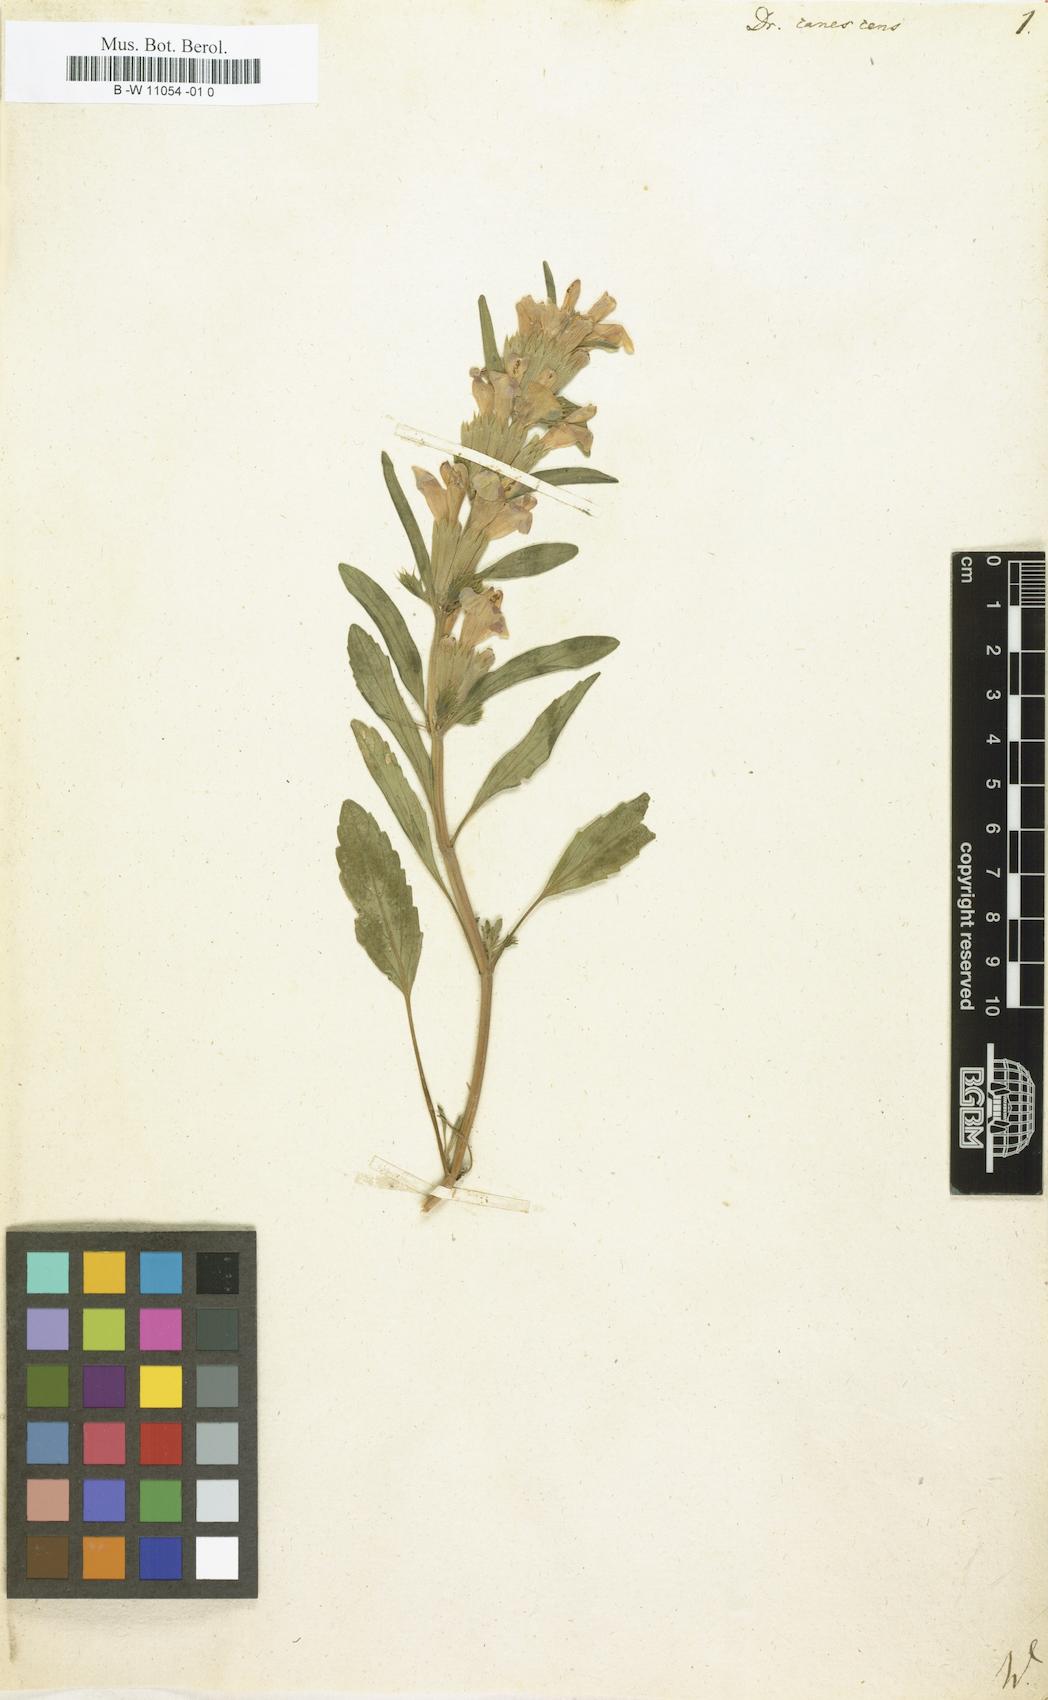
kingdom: Plantae
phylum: Tracheophyta
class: Magnoliopsida
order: Lamiales
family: Lamiaceae
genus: Lallemantia
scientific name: Lallemantia canescens
